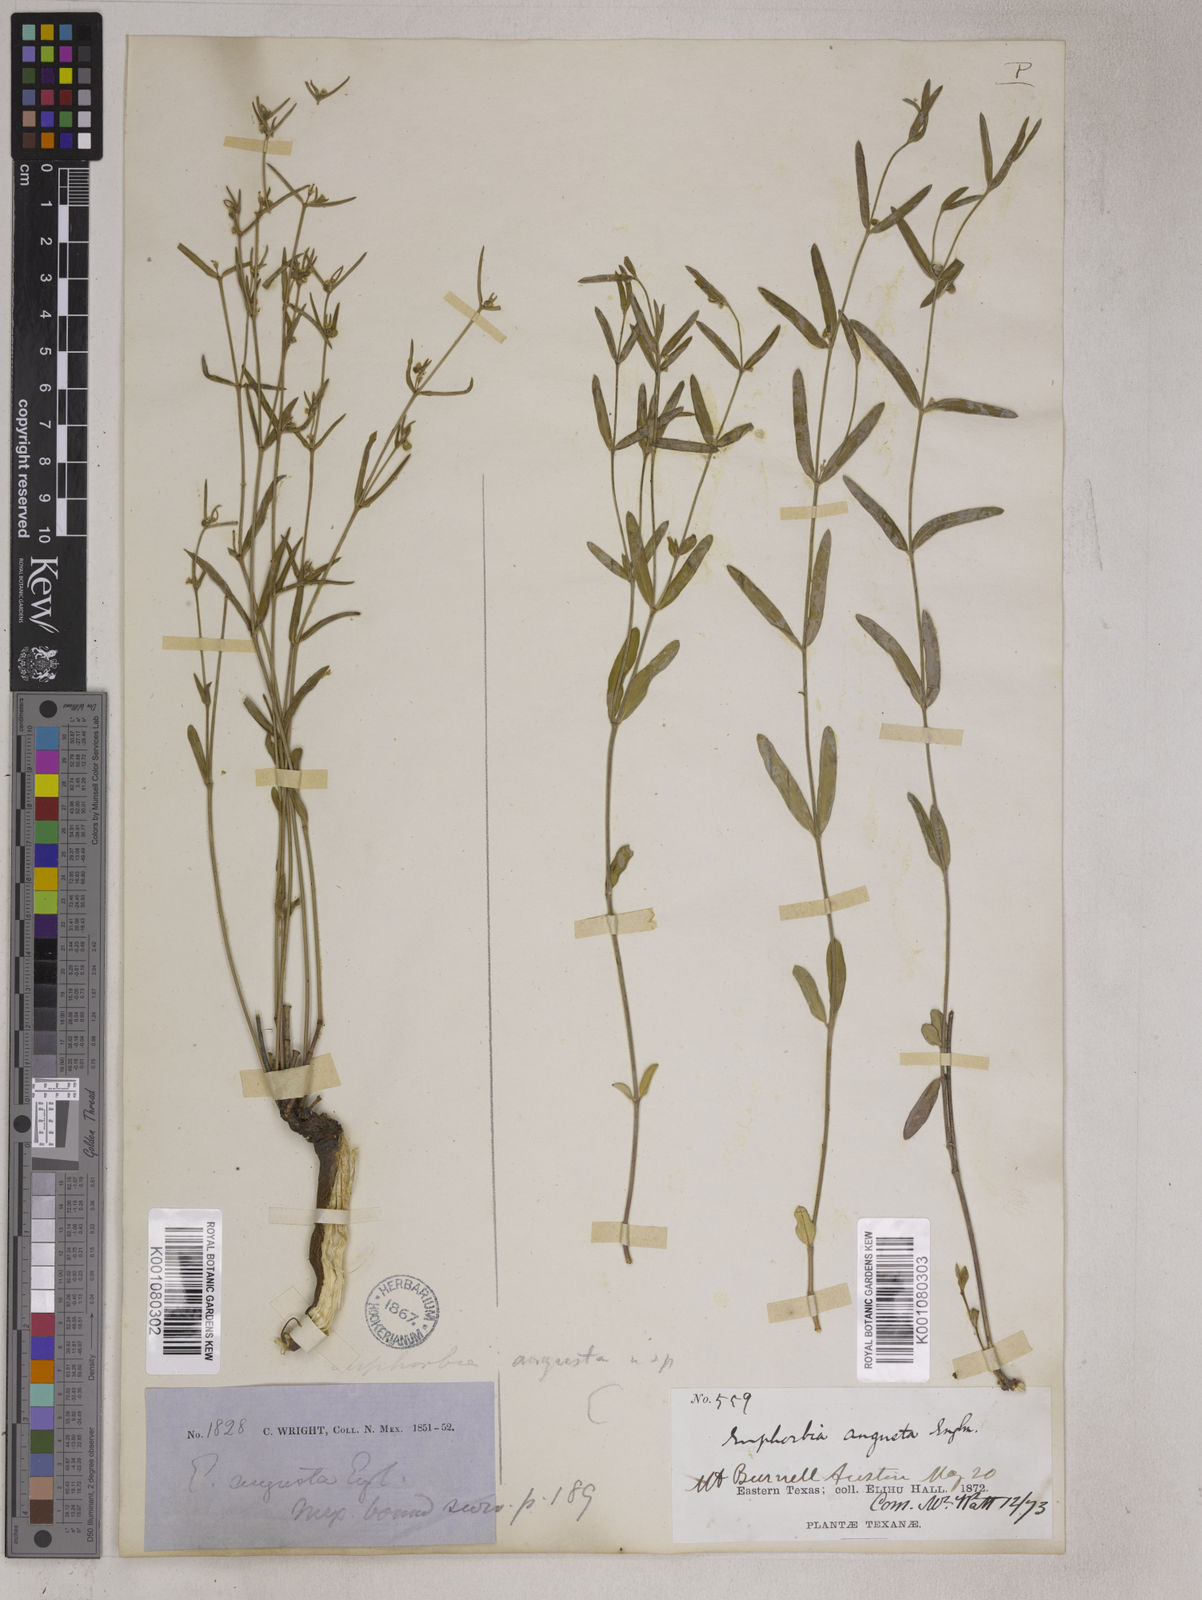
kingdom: Plantae
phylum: Tracheophyta
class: Magnoliopsida
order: Malpighiales
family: Euphorbiaceae
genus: Euphorbia
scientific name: Euphorbia angusta
